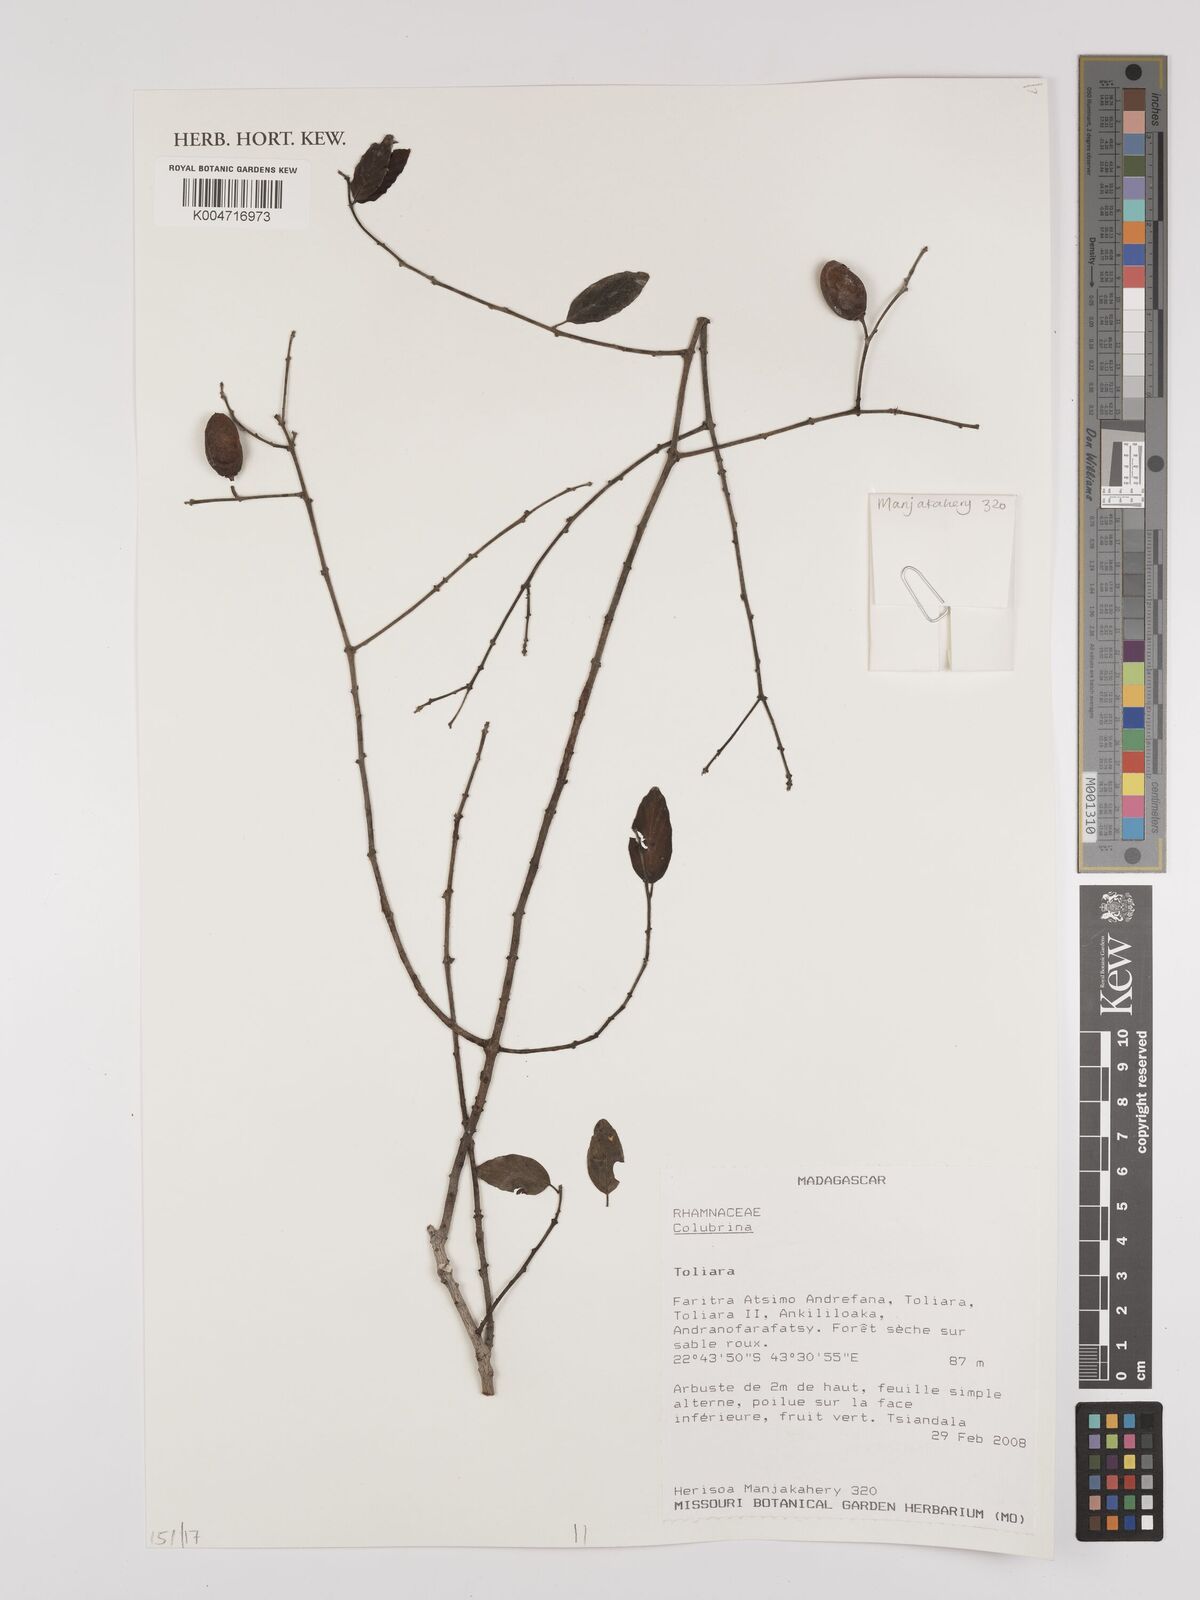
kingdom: Plantae
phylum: Tracheophyta
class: Magnoliopsida
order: Rosales
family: Rhamnaceae
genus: Colubrina
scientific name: Colubrina
